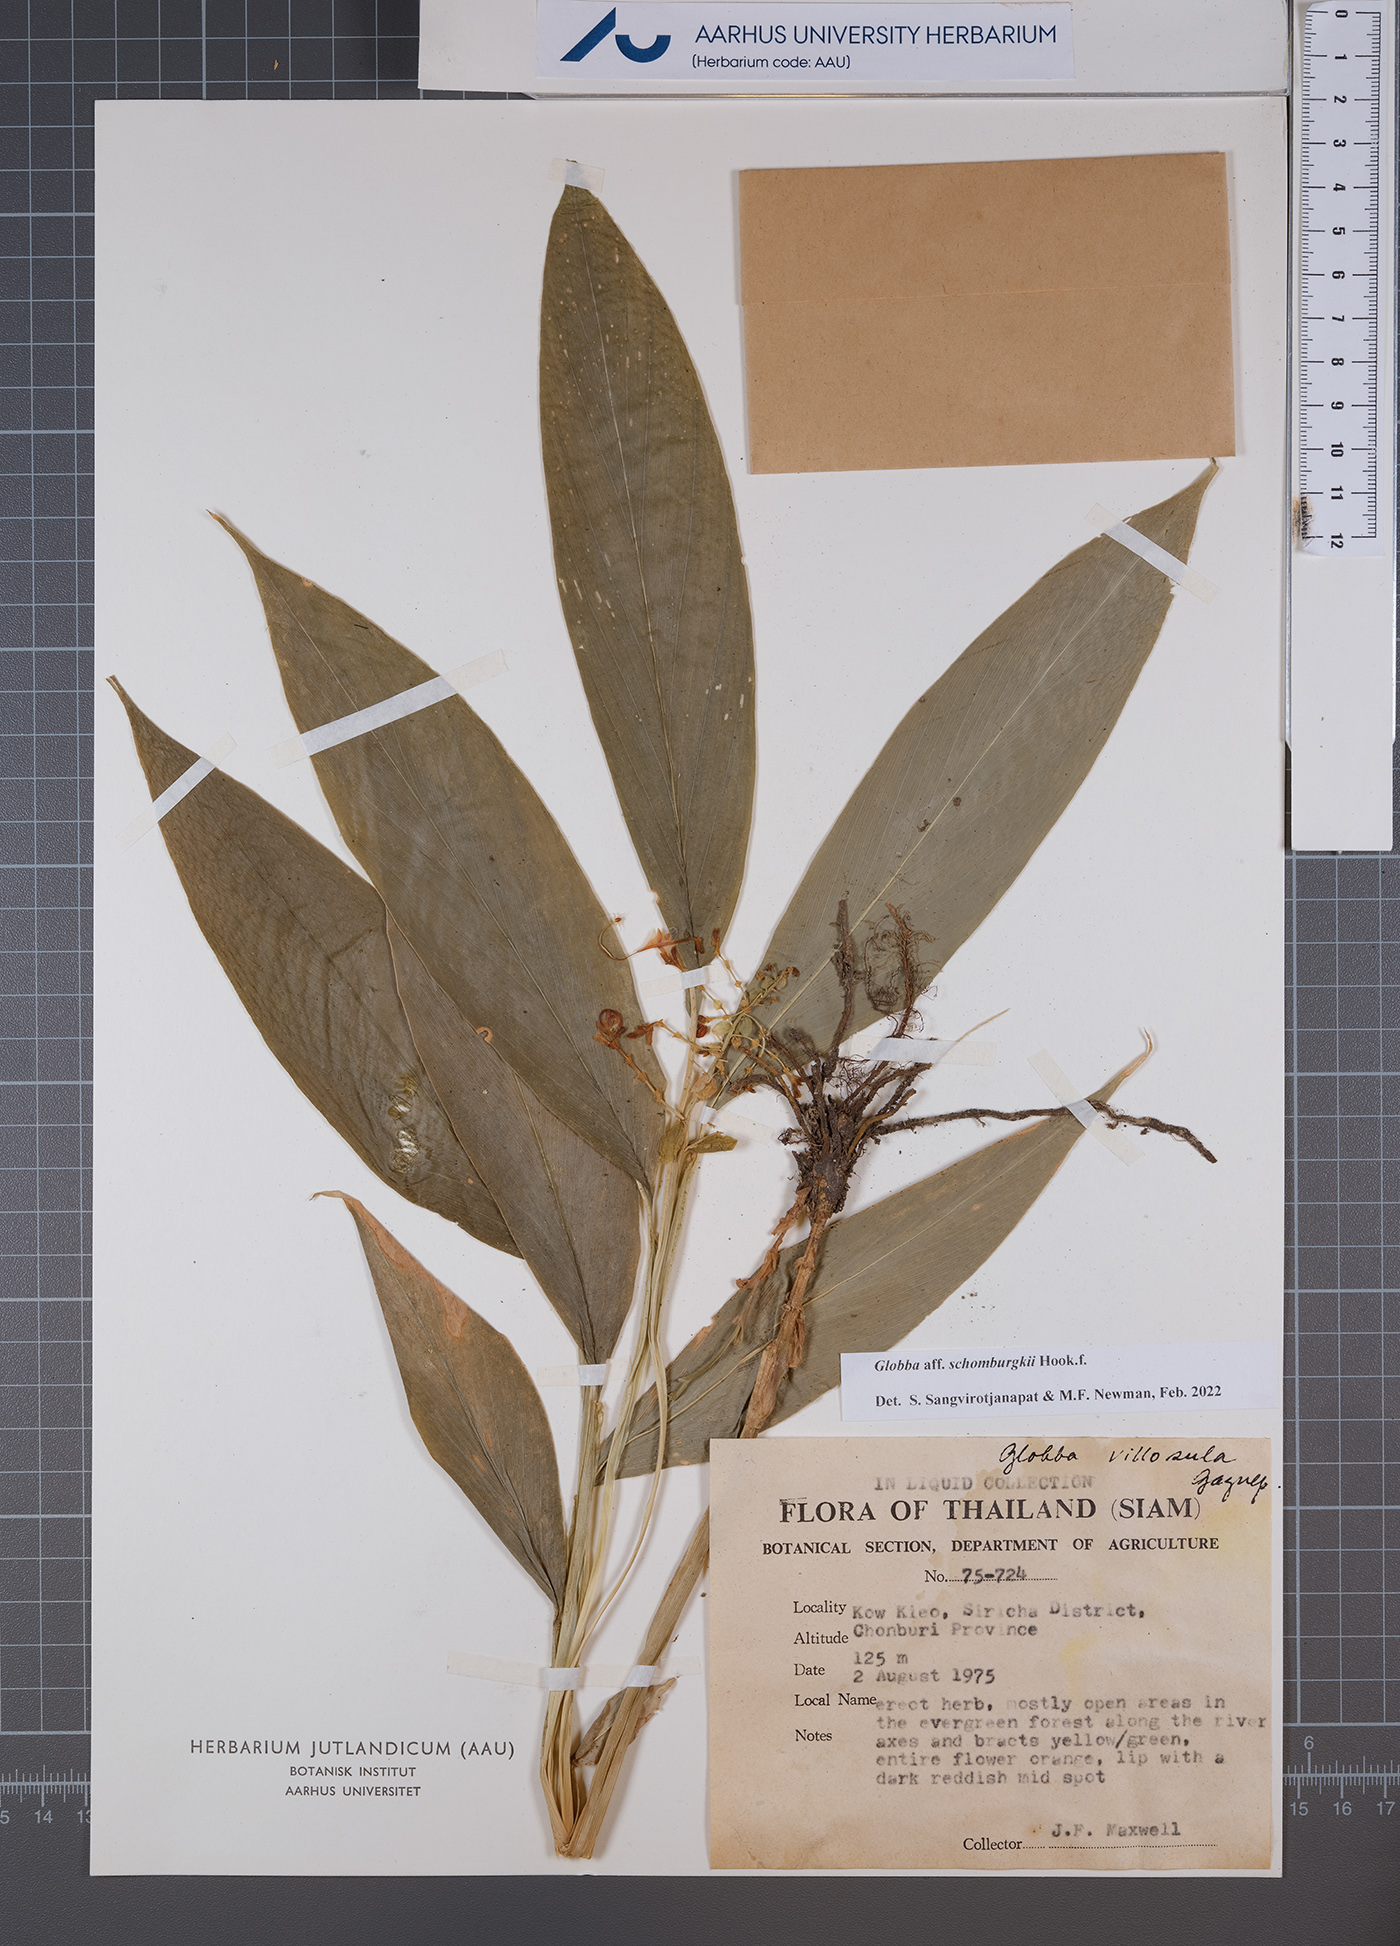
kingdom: Plantae
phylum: Tracheophyta
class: Liliopsida
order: Zingiberales
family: Zingiberaceae
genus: Globba
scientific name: Globba schomburgkii
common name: Dancing girl ginger
